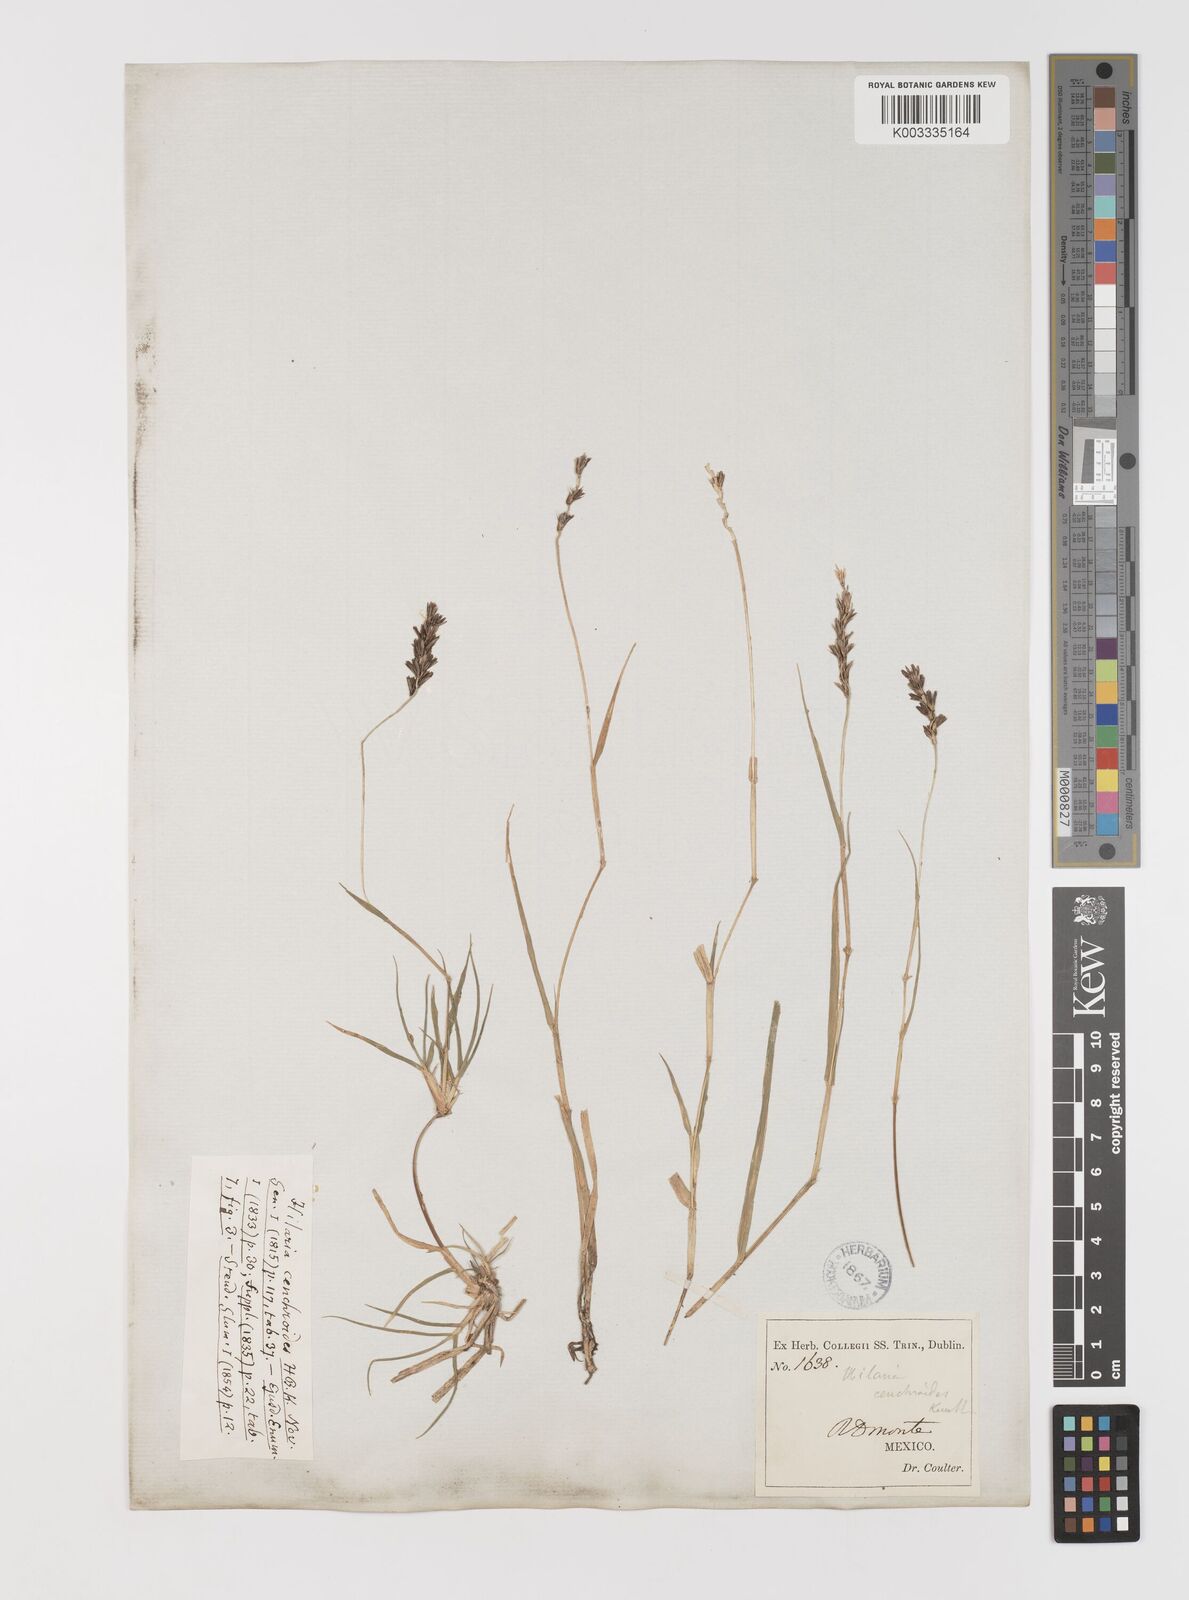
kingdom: Plantae
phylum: Tracheophyta
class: Liliopsida
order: Poales
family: Poaceae
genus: Hilaria
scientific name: Hilaria cenchroides
